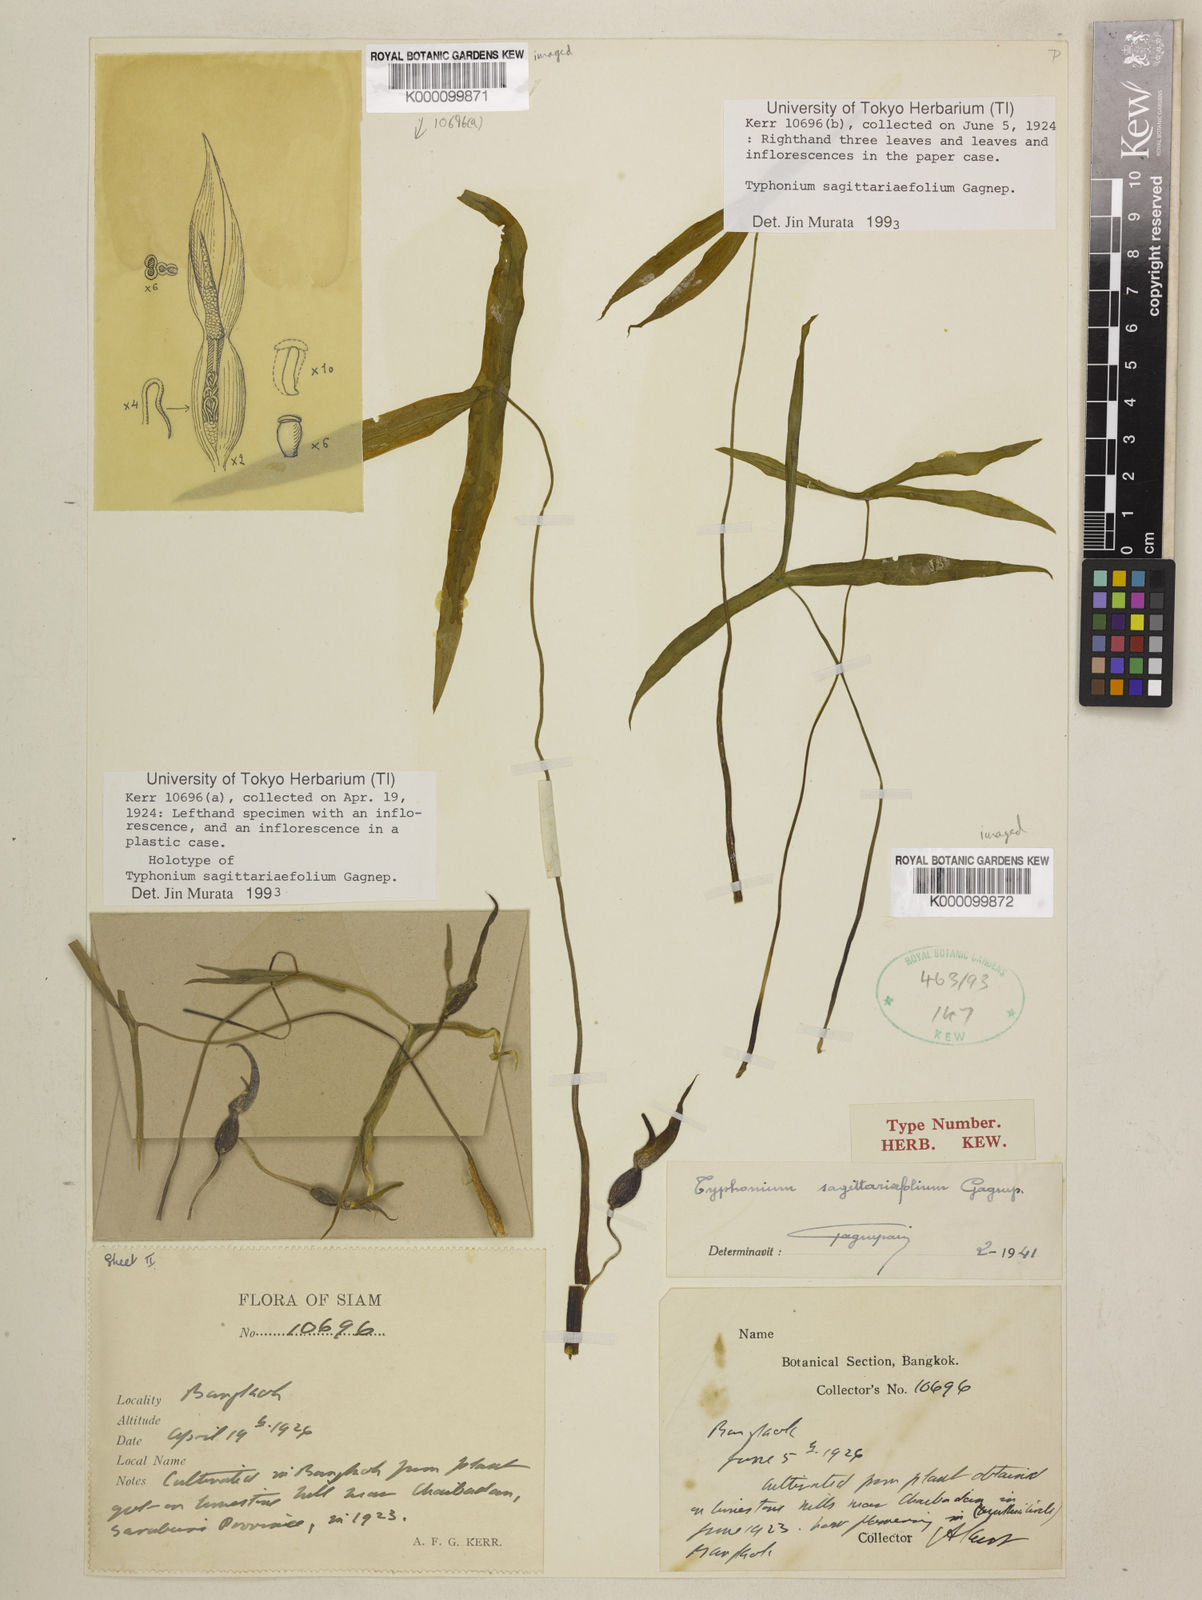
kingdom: Plantae
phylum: Tracheophyta
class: Liliopsida
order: Alismatales
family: Araceae
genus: Typhonium
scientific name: Typhonium sagittariifolium
